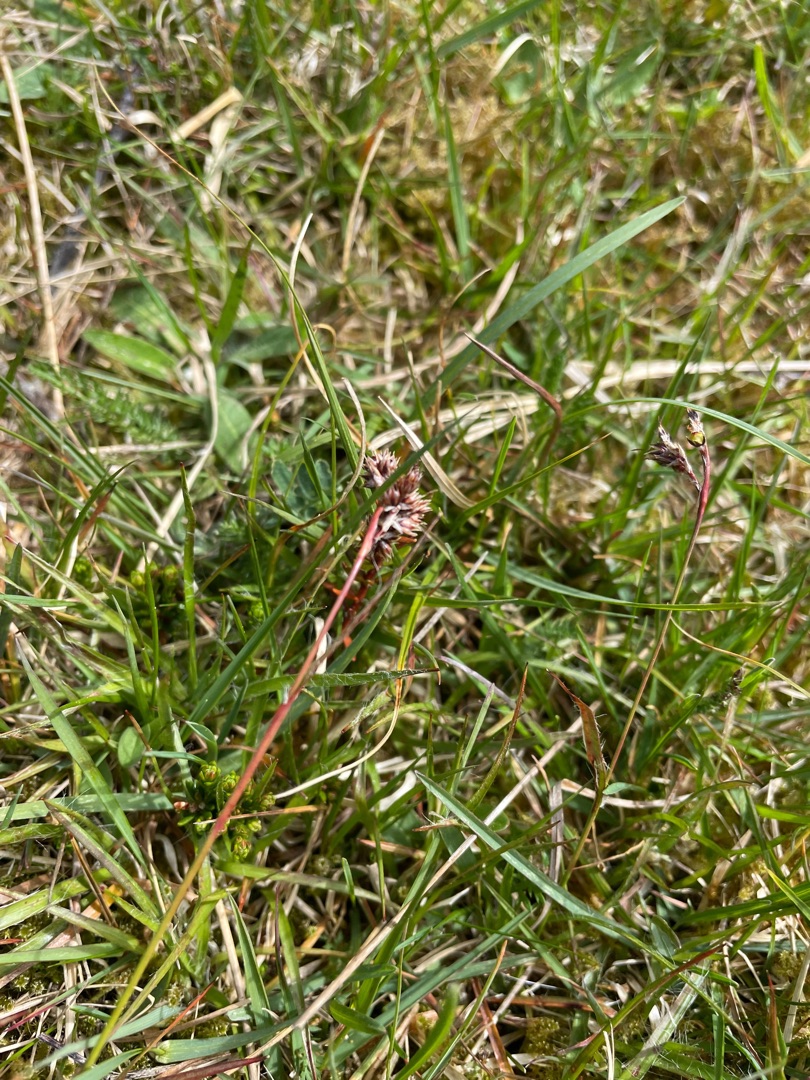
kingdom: Plantae
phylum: Tracheophyta
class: Liliopsida
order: Poales
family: Juncaceae
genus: Luzula
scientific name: Luzula campestris
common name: Mark-frytle
